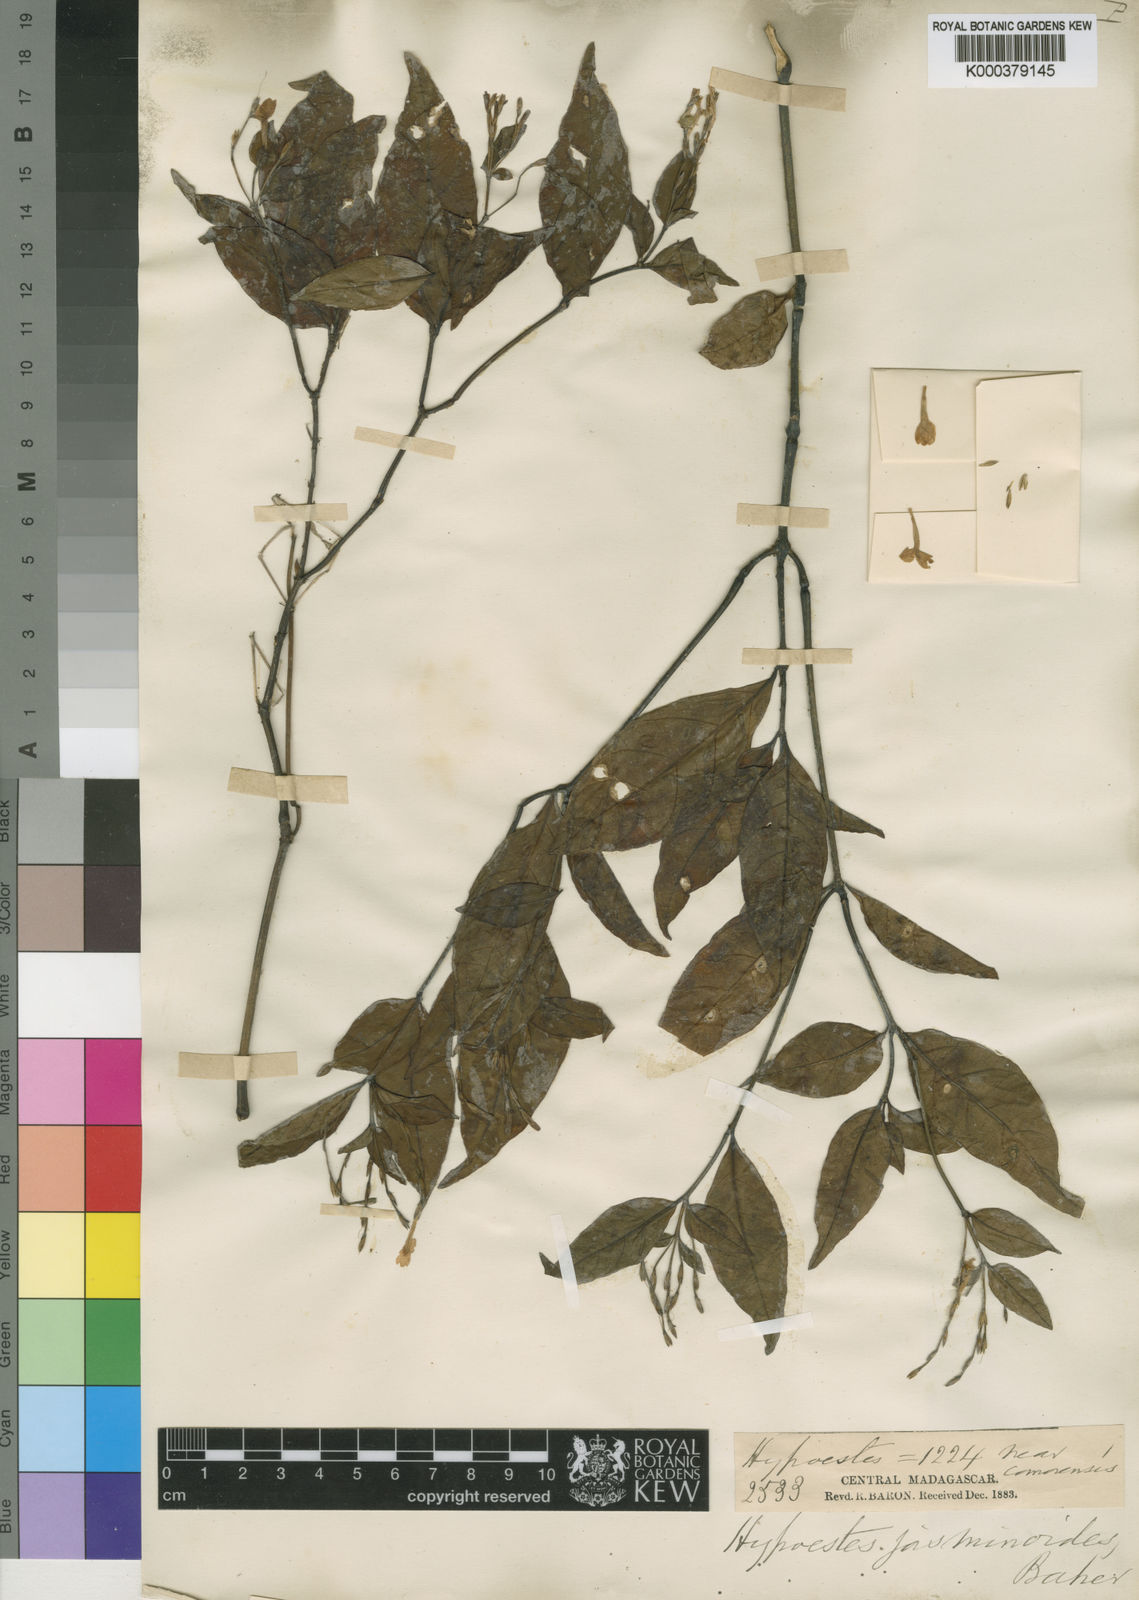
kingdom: Plantae
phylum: Tracheophyta
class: Magnoliopsida
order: Lamiales
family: Acanthaceae
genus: Hypoestes
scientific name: Hypoestes jasminoides
